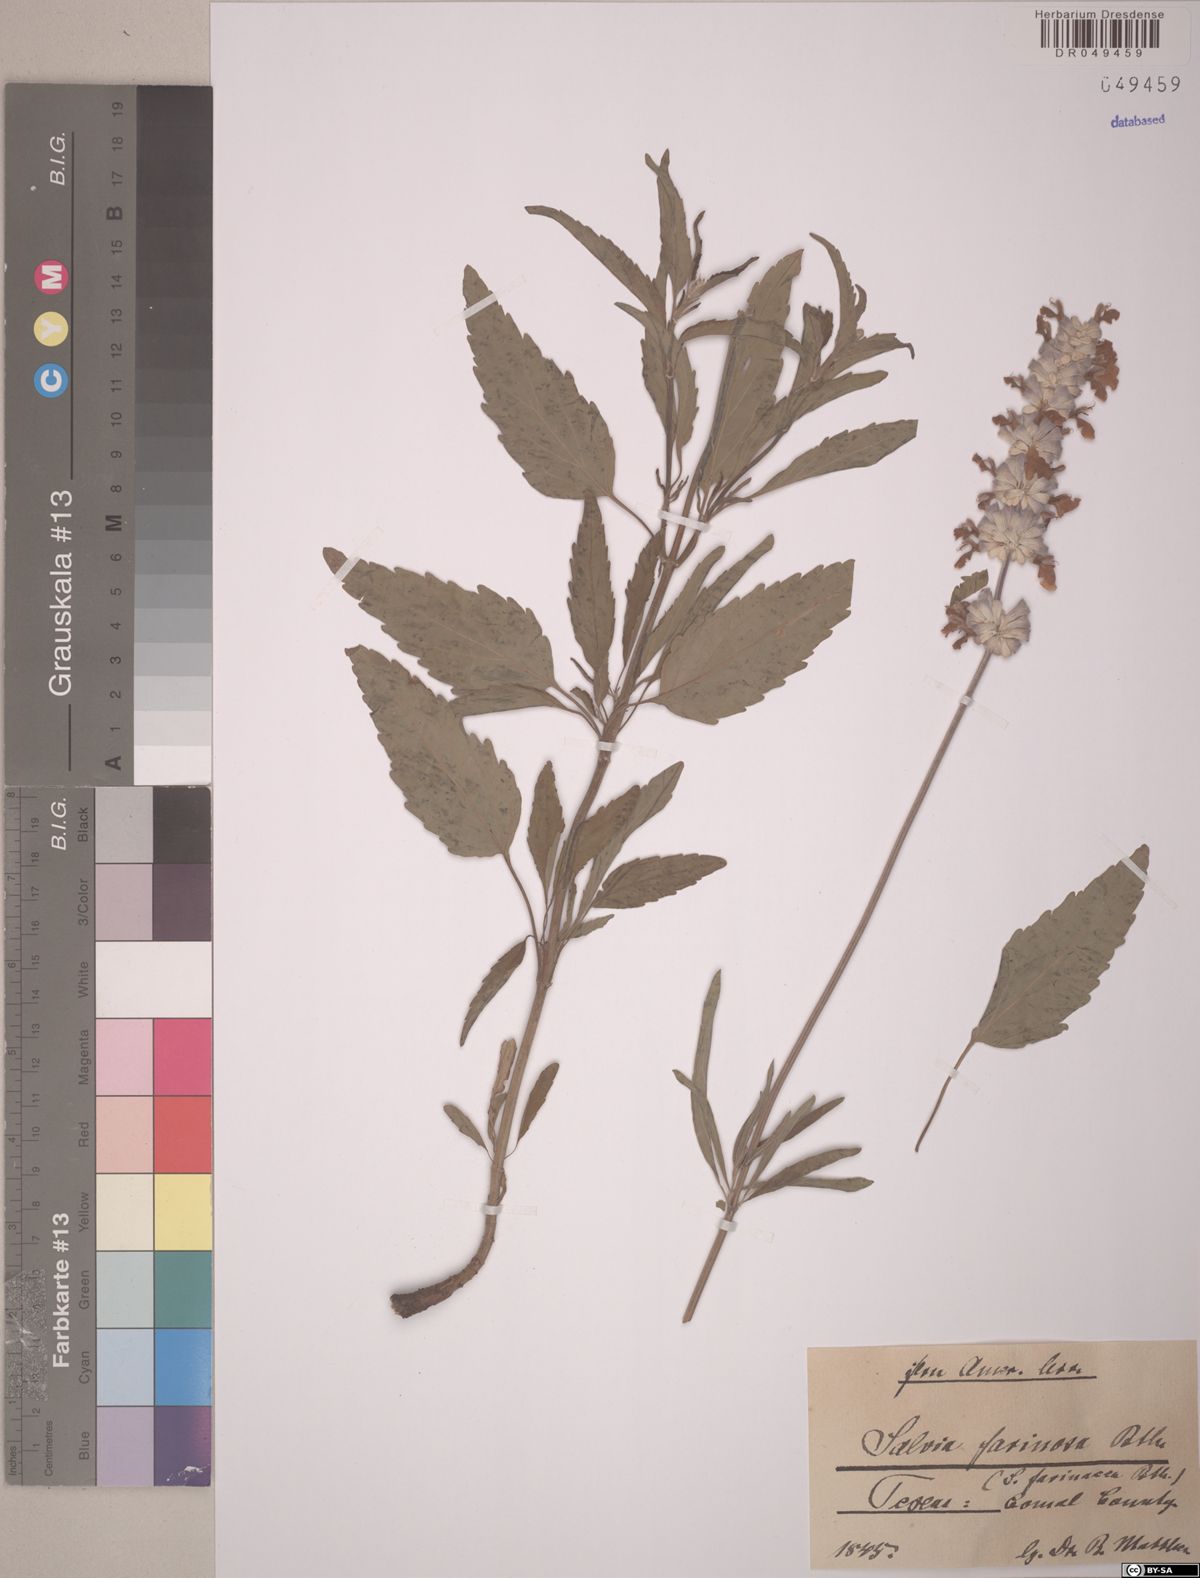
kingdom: Plantae
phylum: Tracheophyta
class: Magnoliopsida
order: Lamiales
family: Lamiaceae
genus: Salvia
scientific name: Salvia farinacea
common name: Mealy sage
